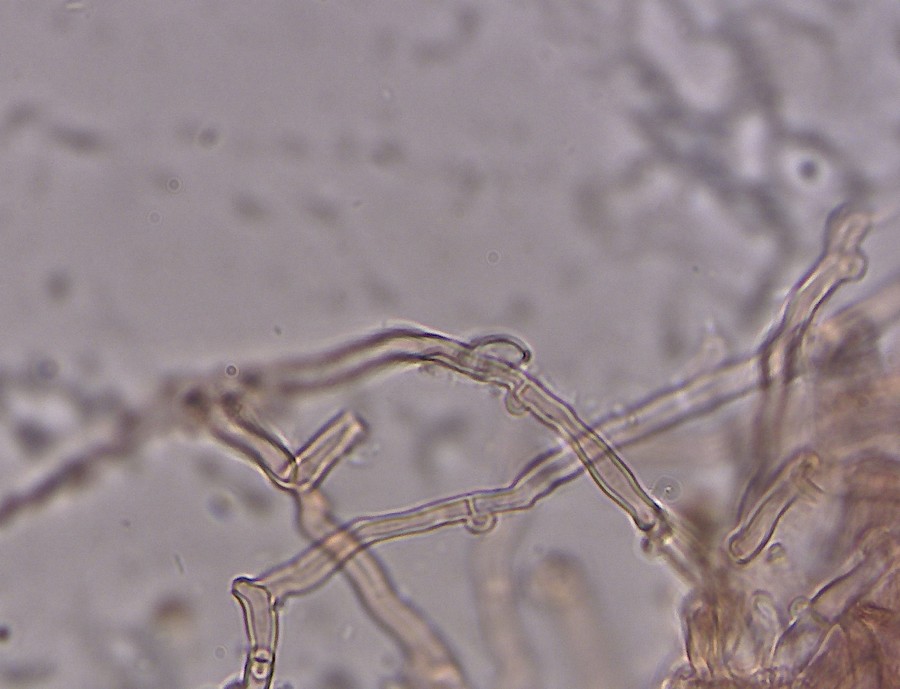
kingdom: Fungi
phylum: Basidiomycota
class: Agaricomycetes
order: Hymenochaetales
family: Hyphodontiaceae
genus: Hyphodontia
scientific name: Hyphodontia arguta
